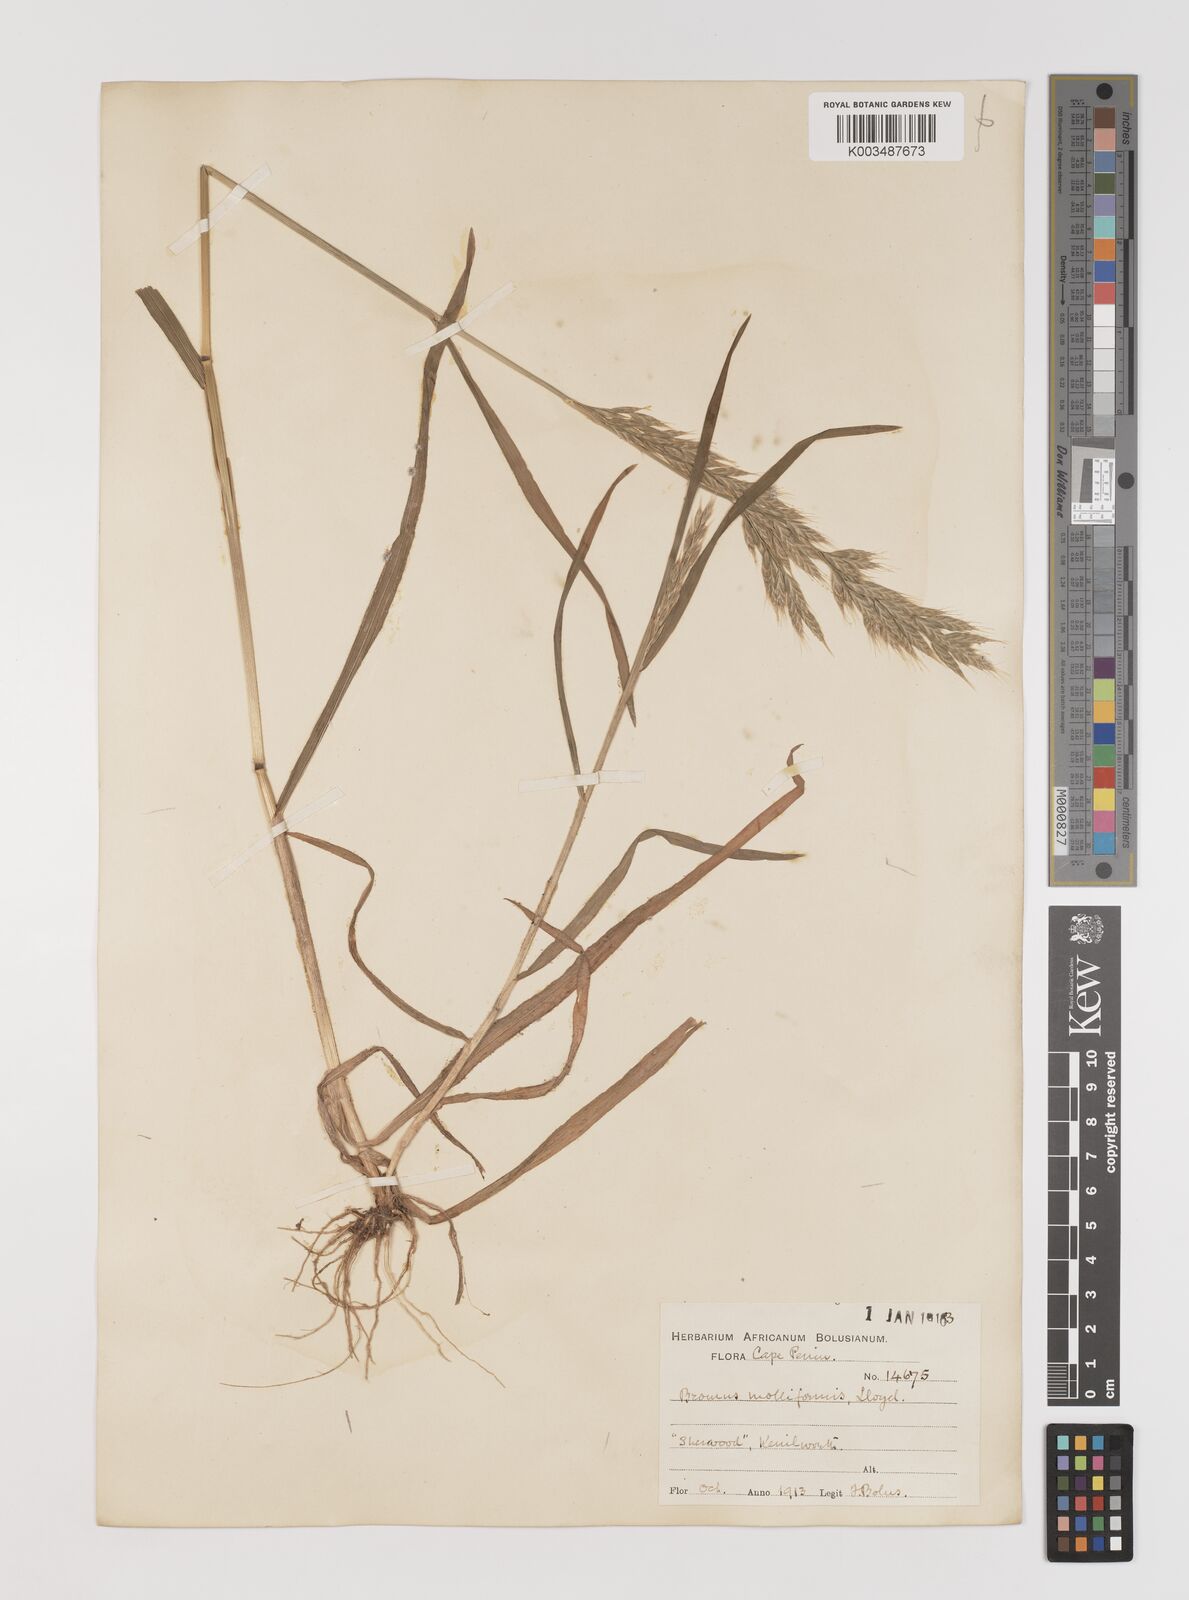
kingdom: Plantae
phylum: Tracheophyta
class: Liliopsida
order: Poales
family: Poaceae
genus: Bromus
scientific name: Bromus hordeaceus
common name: Soft brome
